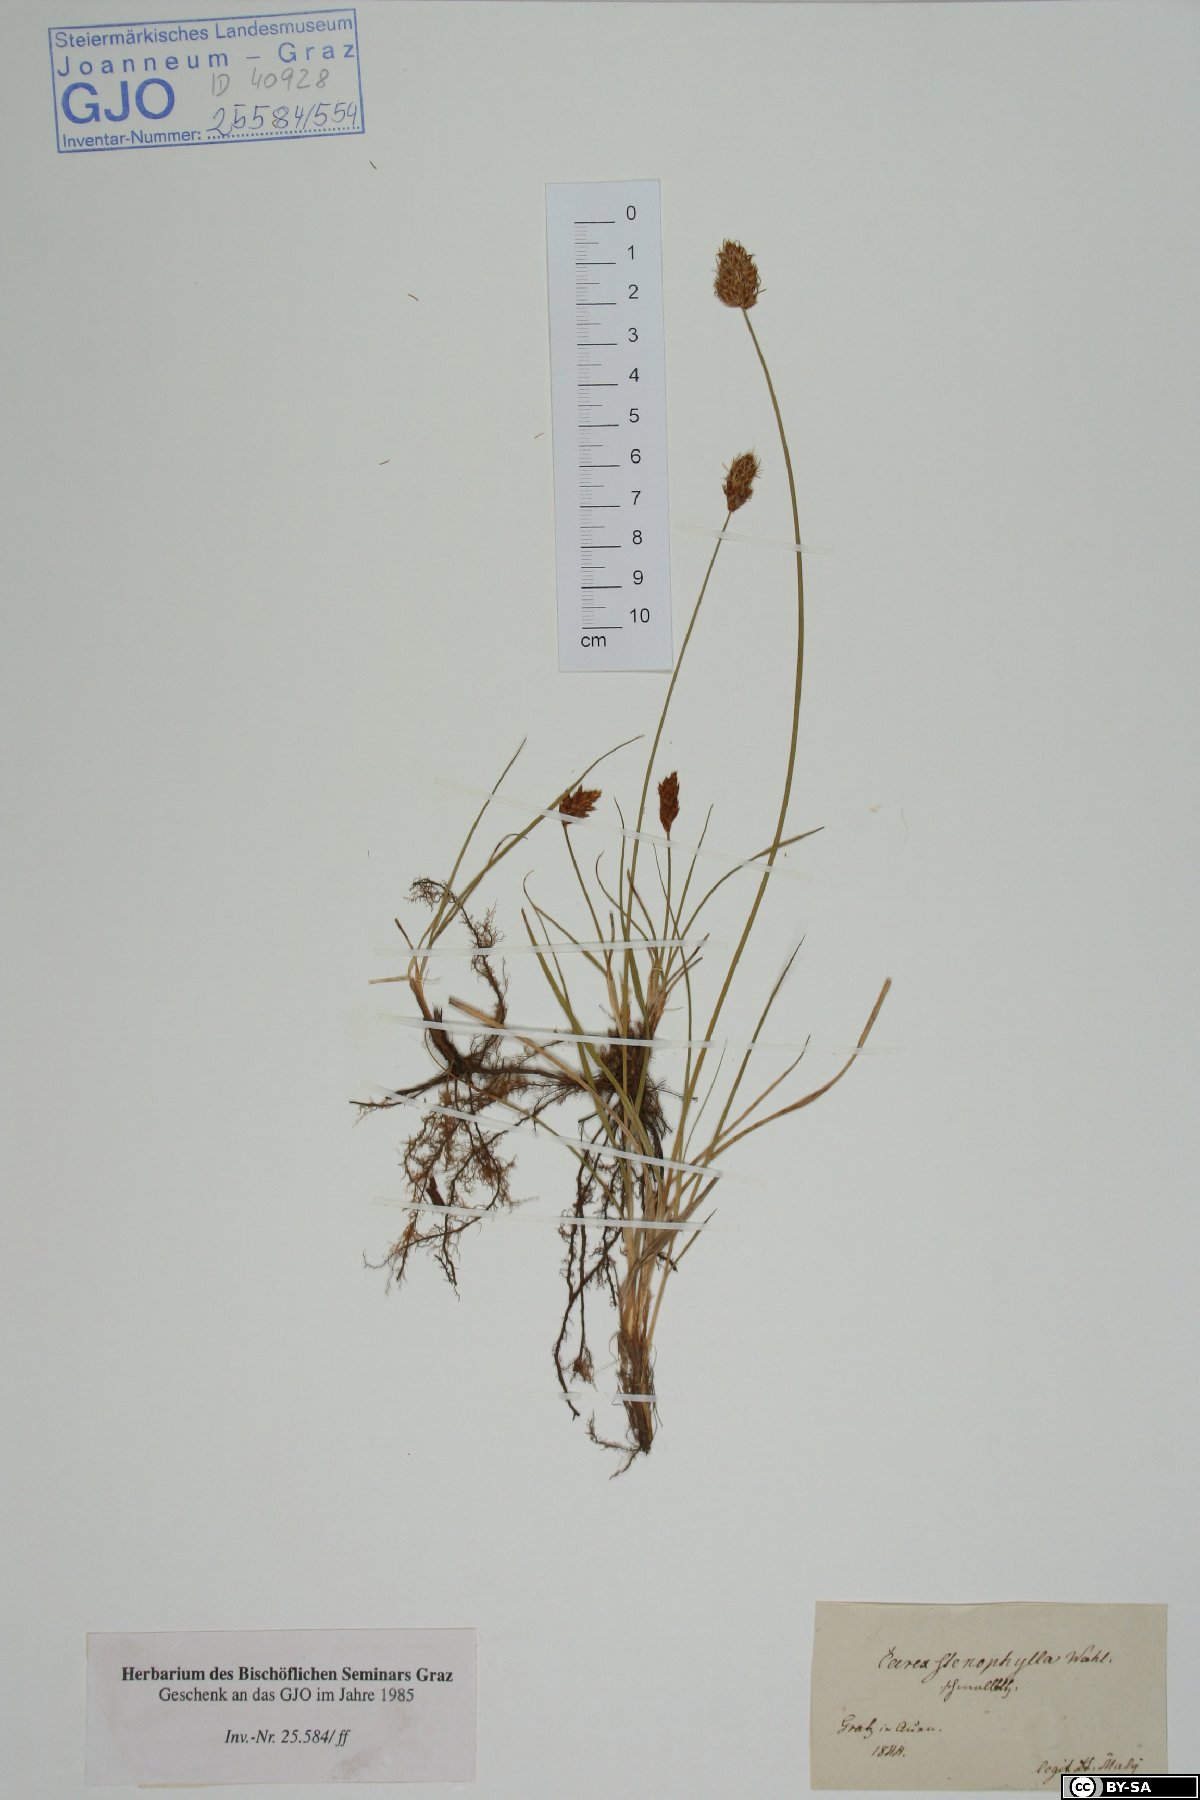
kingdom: Plantae
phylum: Tracheophyta
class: Liliopsida
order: Poales
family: Cyperaceae
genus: Carex
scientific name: Carex stenophylla
